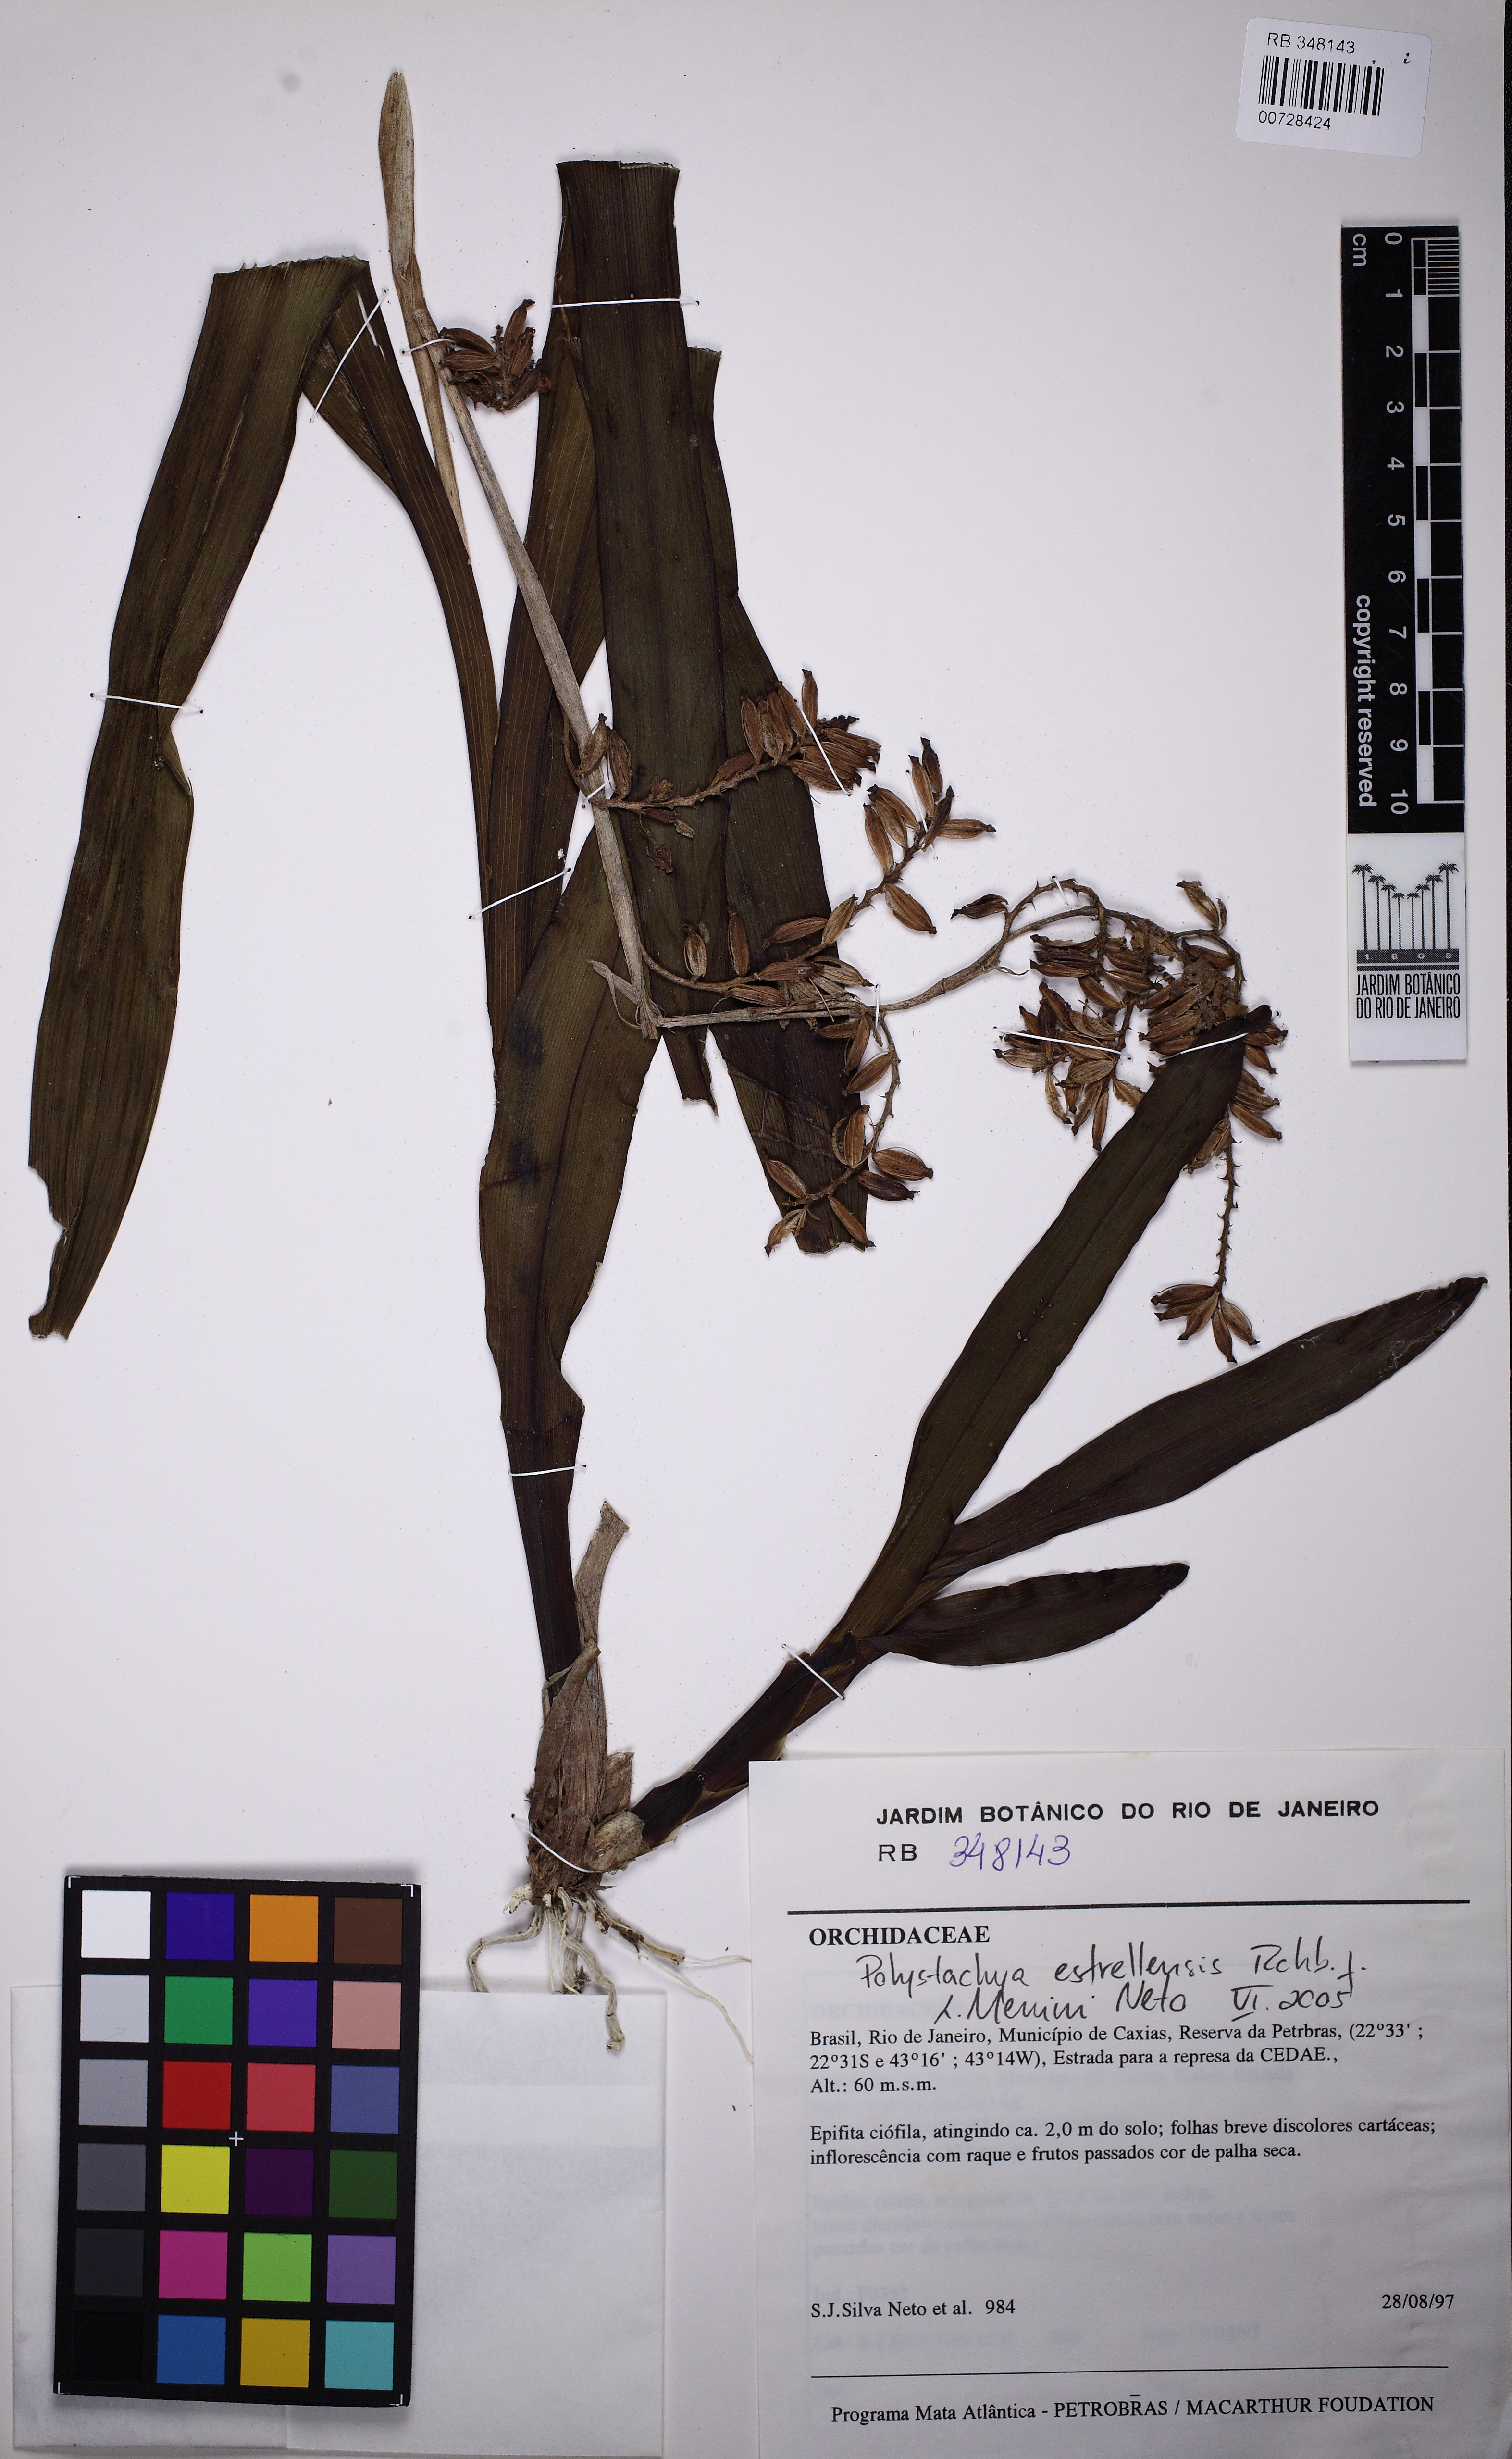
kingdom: Plantae
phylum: Tracheophyta
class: Liliopsida
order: Asparagales
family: Orchidaceae
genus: Polystachya
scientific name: Polystachya foliosa
